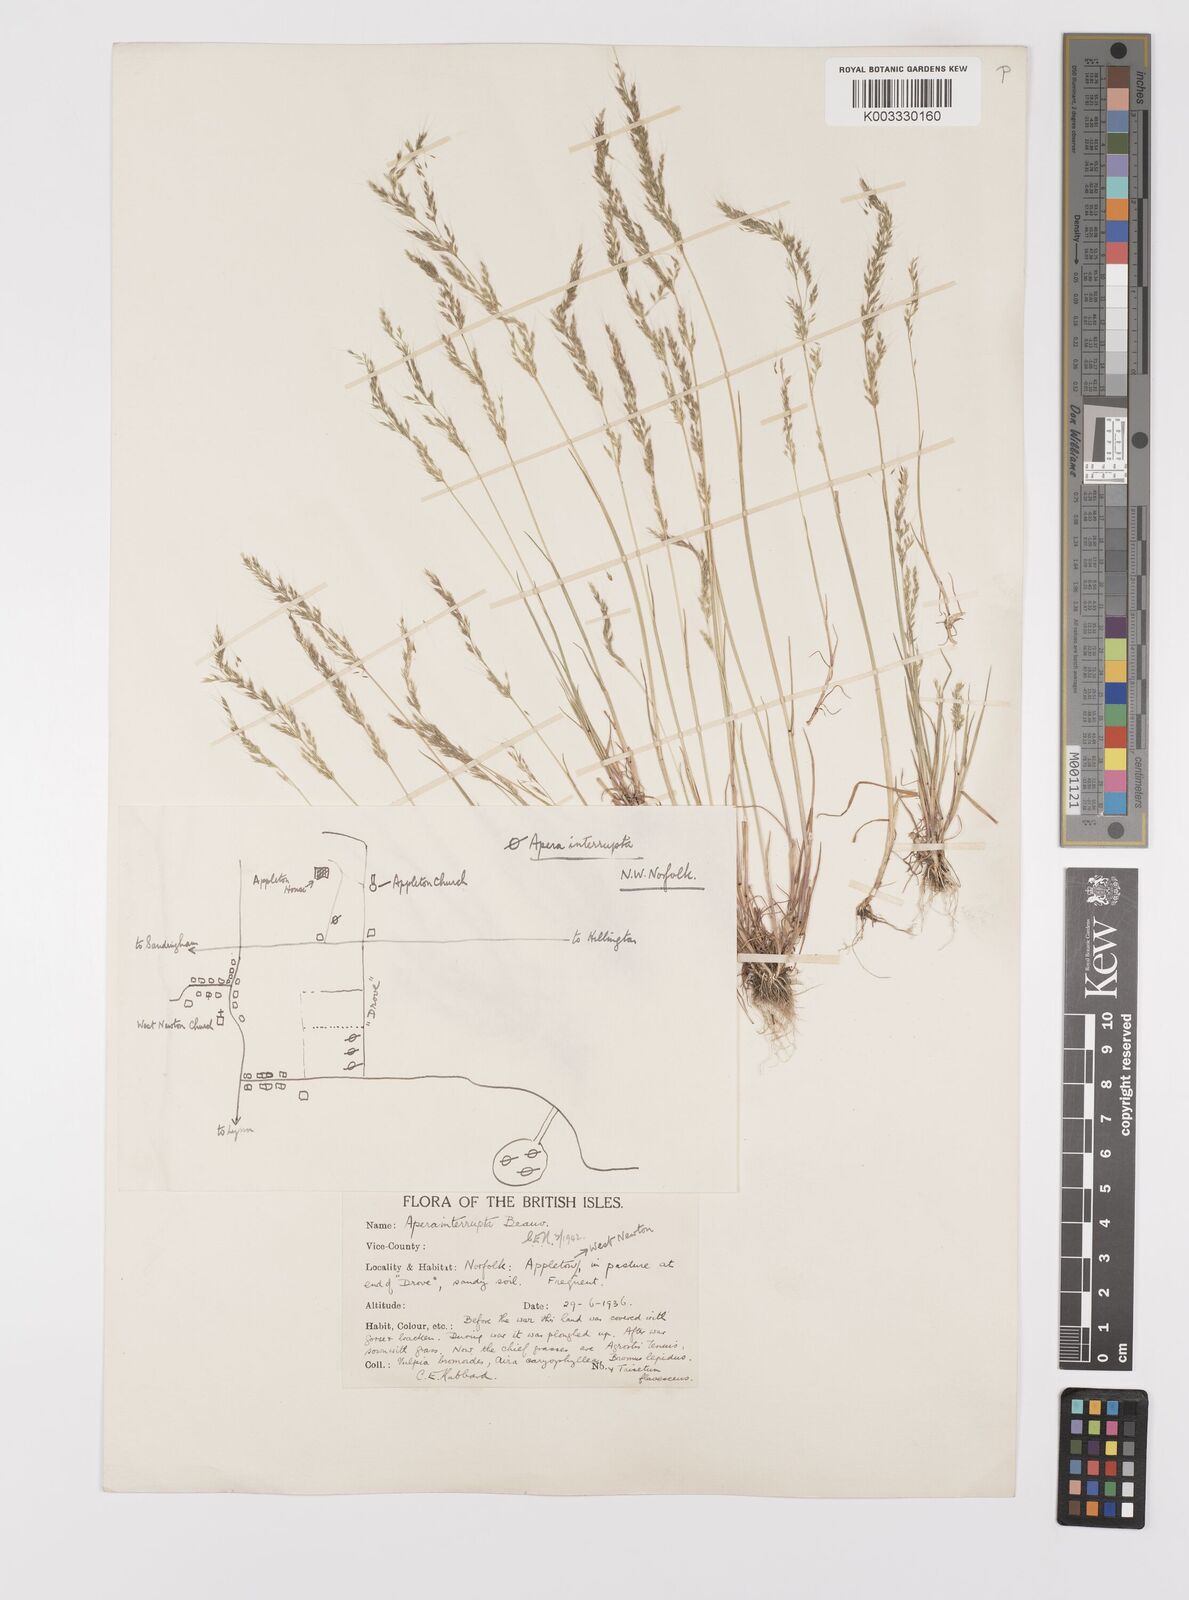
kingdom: Plantae
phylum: Tracheophyta
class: Liliopsida
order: Poales
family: Poaceae
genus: Apera
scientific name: Apera interrupta
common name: Dense silky-bent
